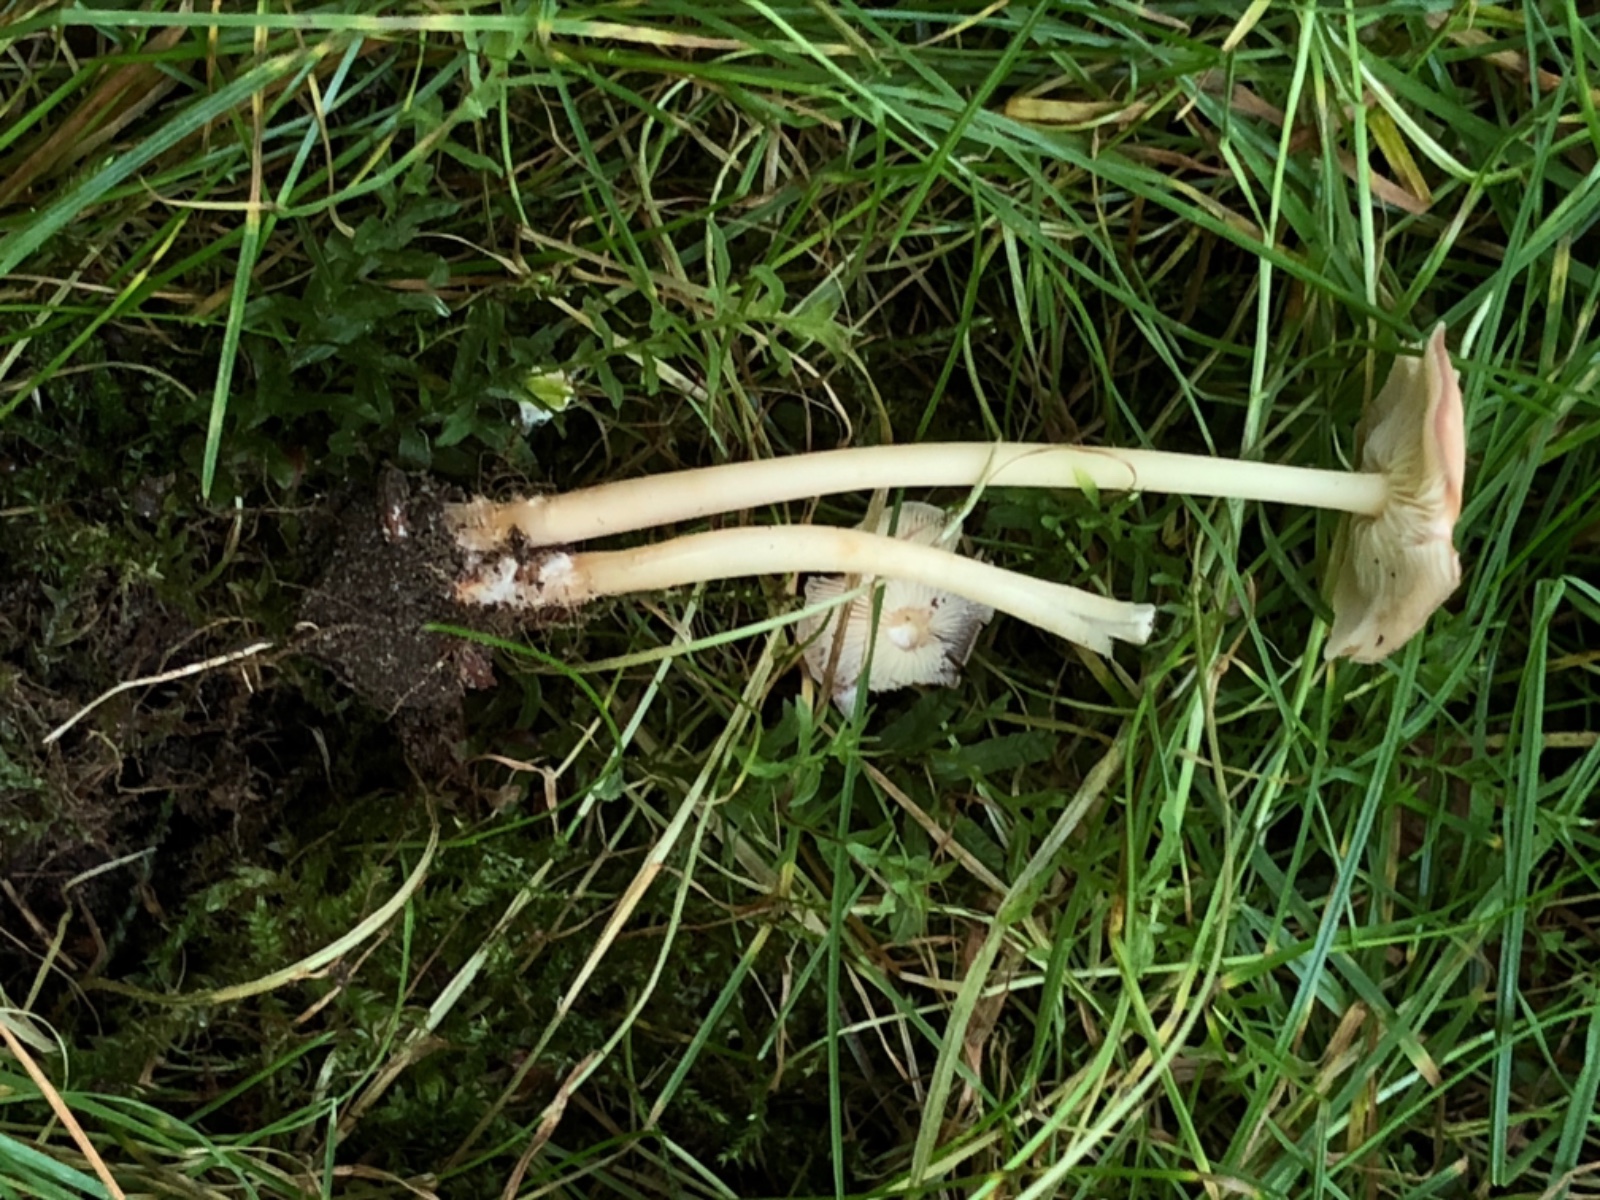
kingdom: Fungi
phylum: Basidiomycota
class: Agaricomycetes
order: Agaricales
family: Omphalotaceae
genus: Gymnopus
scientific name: Gymnopus ocior
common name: mørk fladhat
